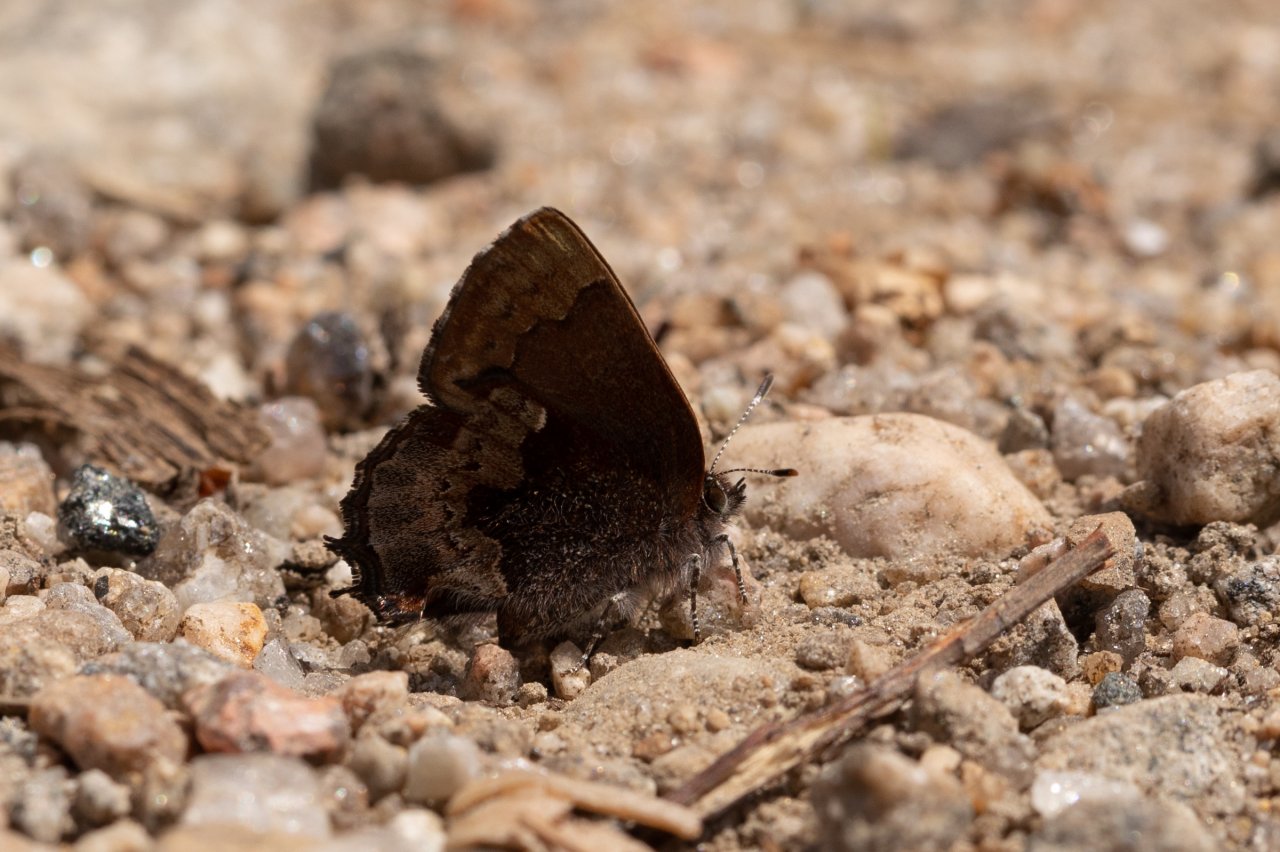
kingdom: Animalia
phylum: Arthropoda
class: Insecta
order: Lepidoptera
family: Lycaenidae
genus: Incisalia
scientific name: Incisalia henrici
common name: Henry's Elfin
